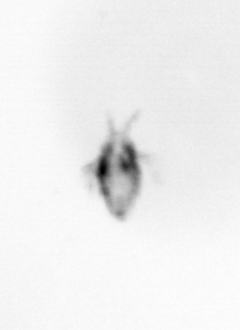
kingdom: Animalia
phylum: Arthropoda
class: Copepoda
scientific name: Copepoda
